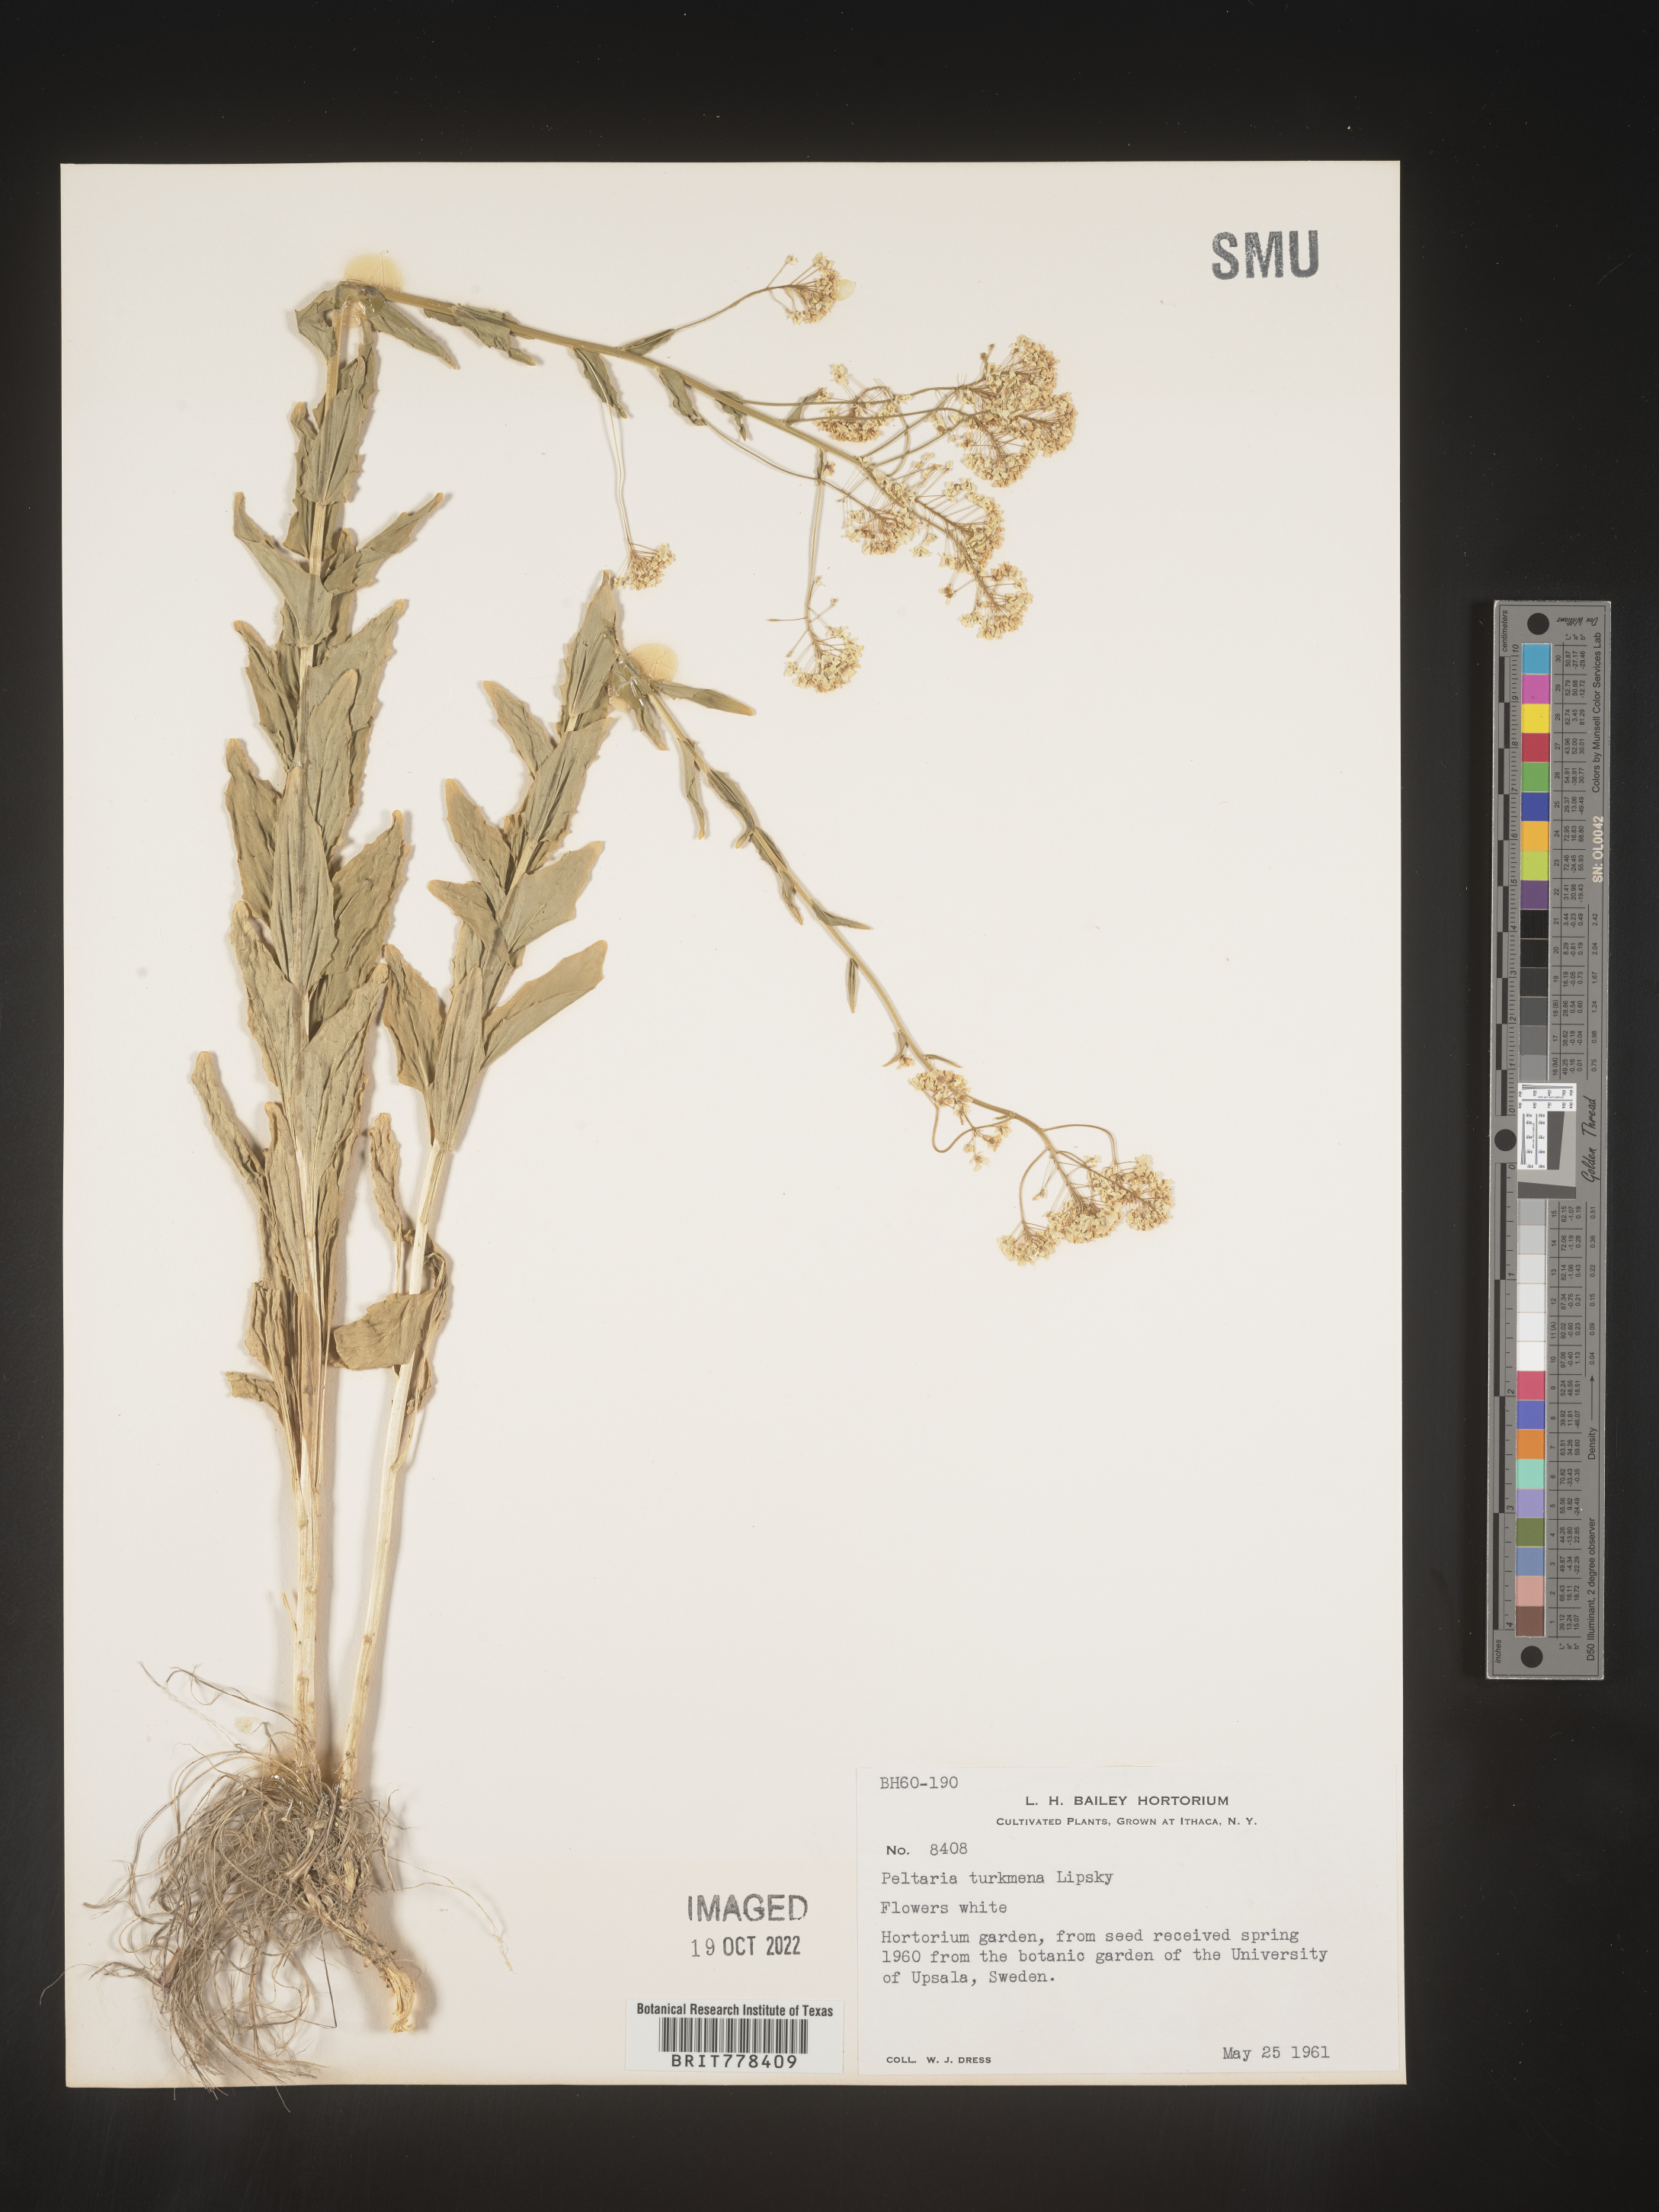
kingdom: Plantae
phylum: Tracheophyta
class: Magnoliopsida
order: Brassicales
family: Brassicaceae
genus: Peltaria
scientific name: Peltaria
